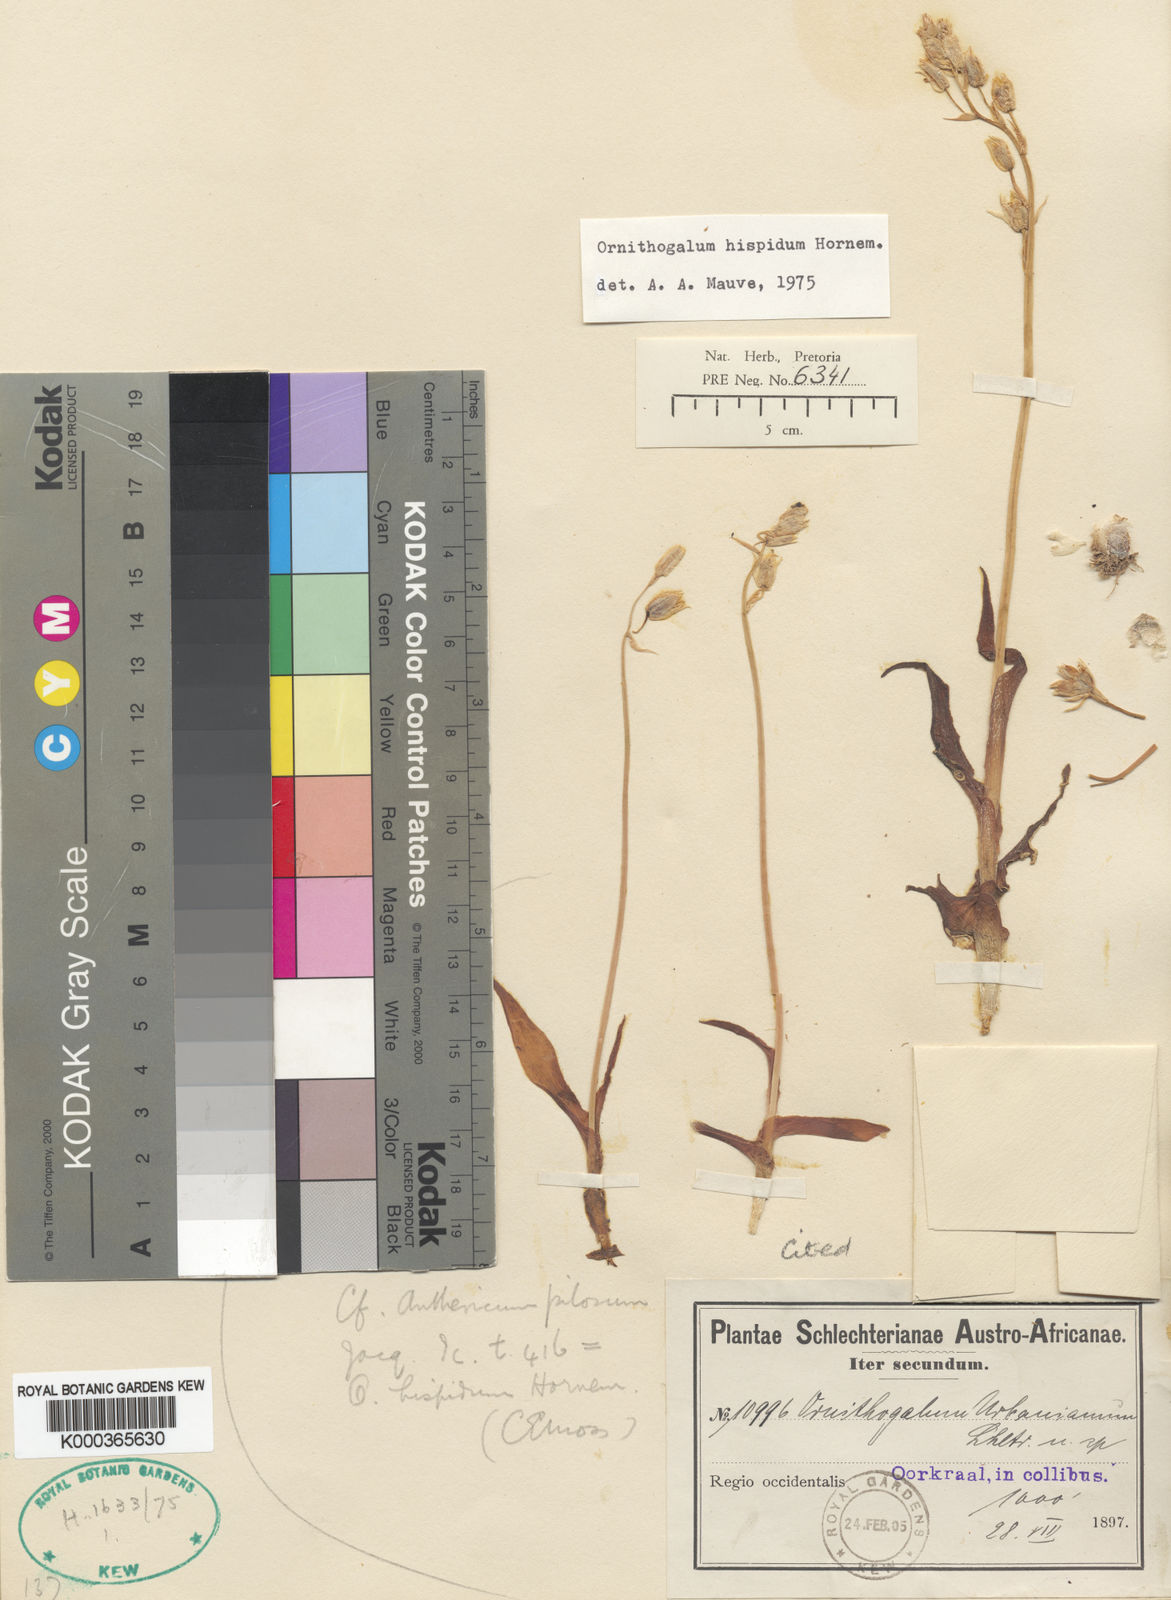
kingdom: Plantae
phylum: Tracheophyta
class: Liliopsida
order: Asparagales
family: Asparagaceae
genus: Ornithogalum
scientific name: Ornithogalum hispidum
